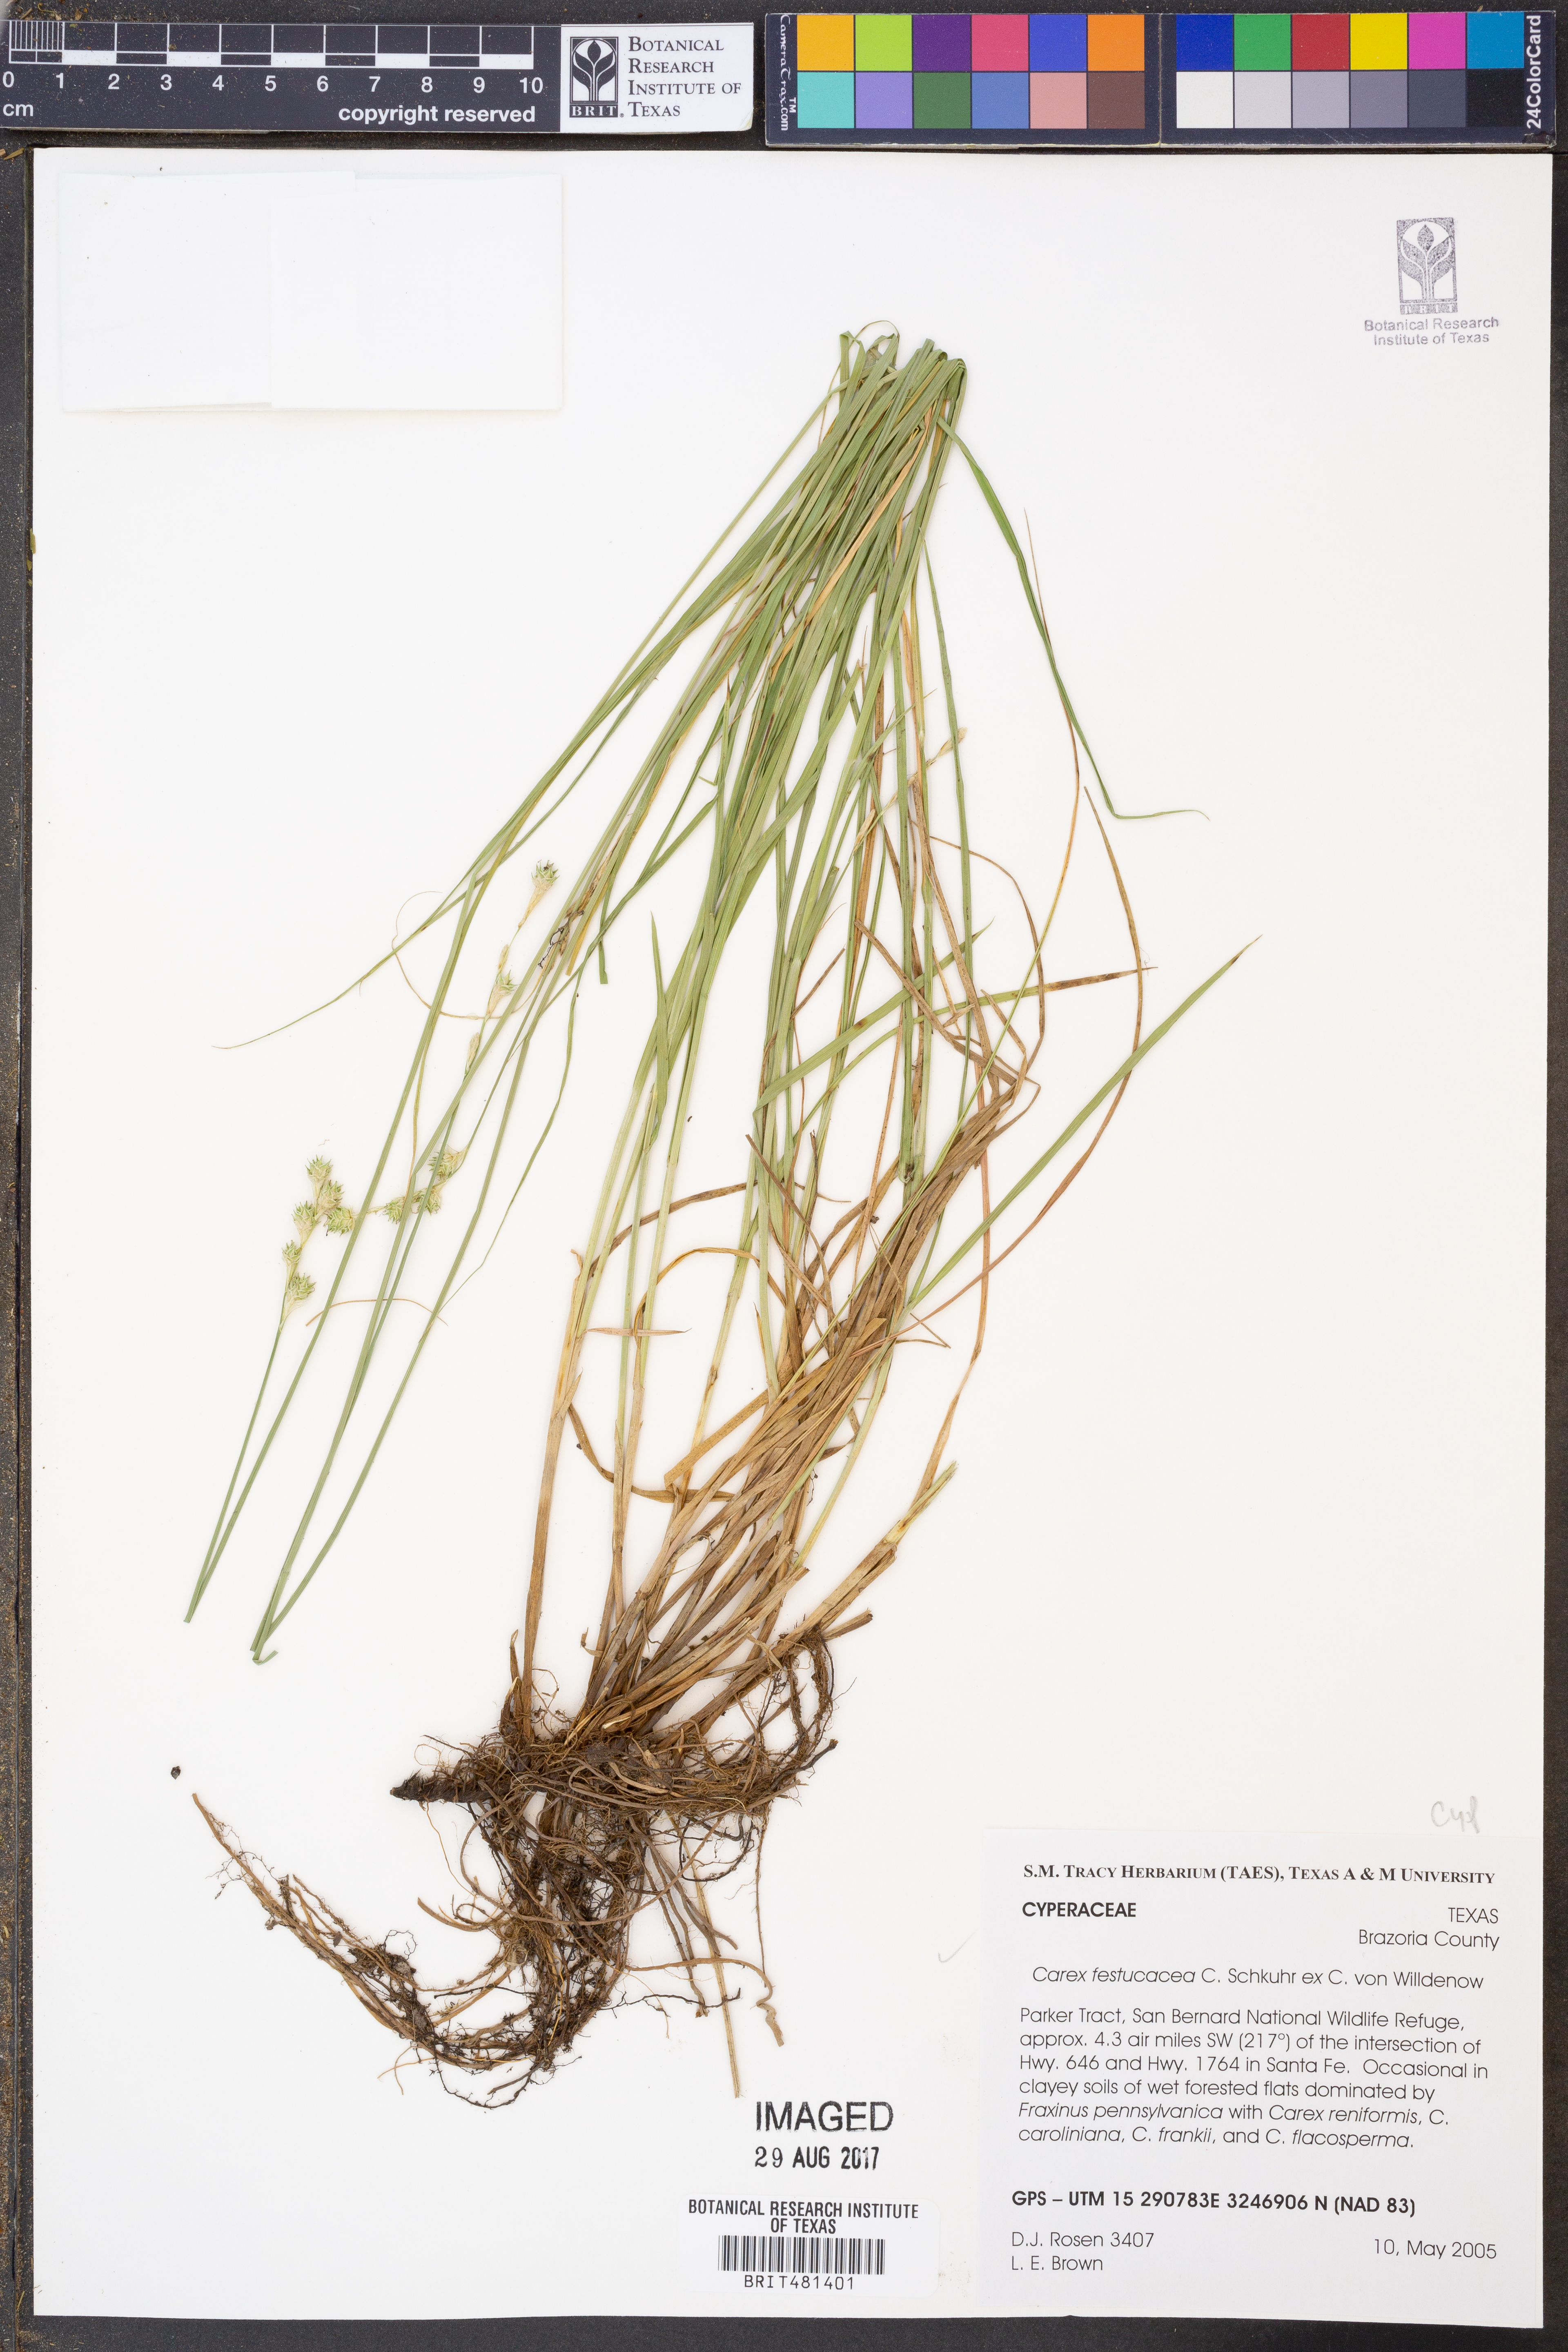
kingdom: Plantae
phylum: Tracheophyta
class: Liliopsida
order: Poales
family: Cyperaceae
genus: Carex
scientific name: Carex festucacea
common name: Fescue oval sedge
